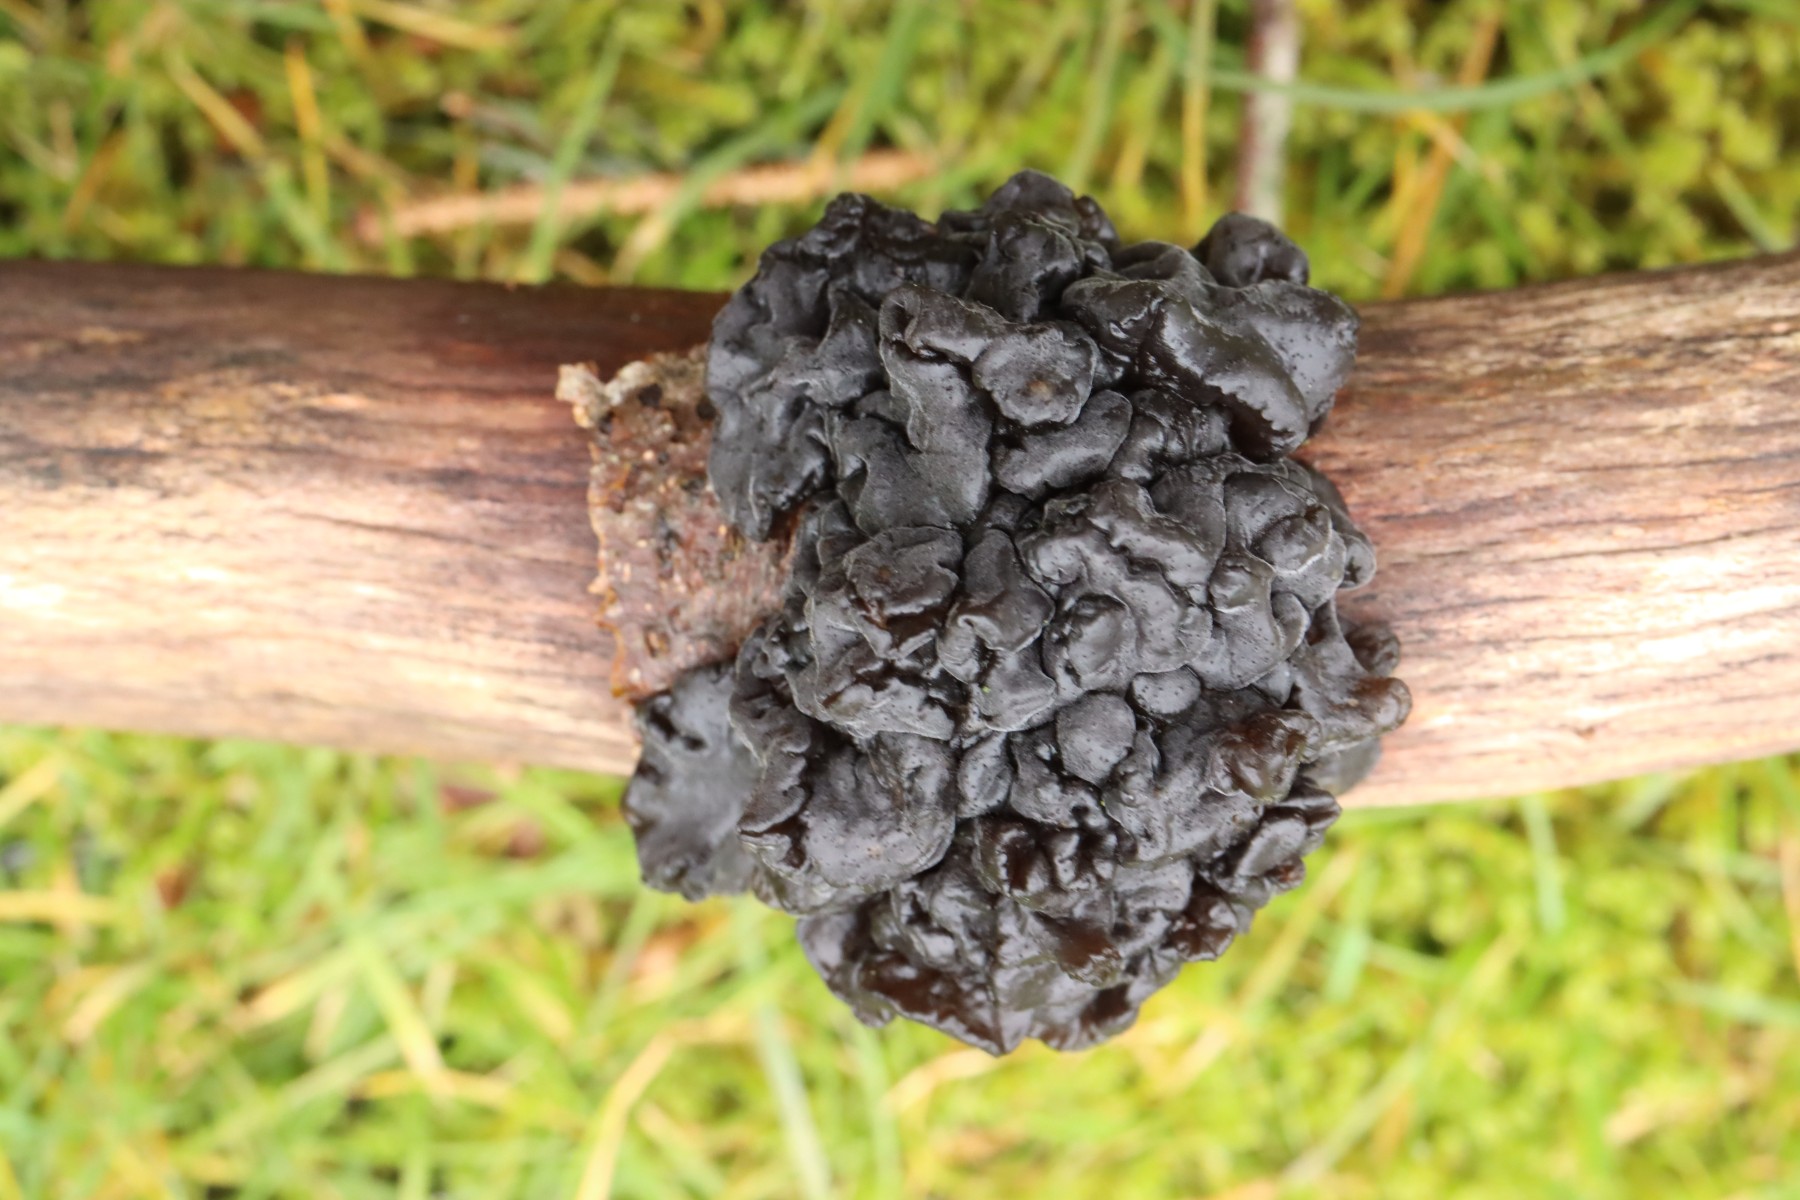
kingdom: Fungi
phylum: Basidiomycota
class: Agaricomycetes
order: Auriculariales
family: Auriculariaceae
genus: Exidia
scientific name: Exidia nigricans
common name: almindelig bævretop
